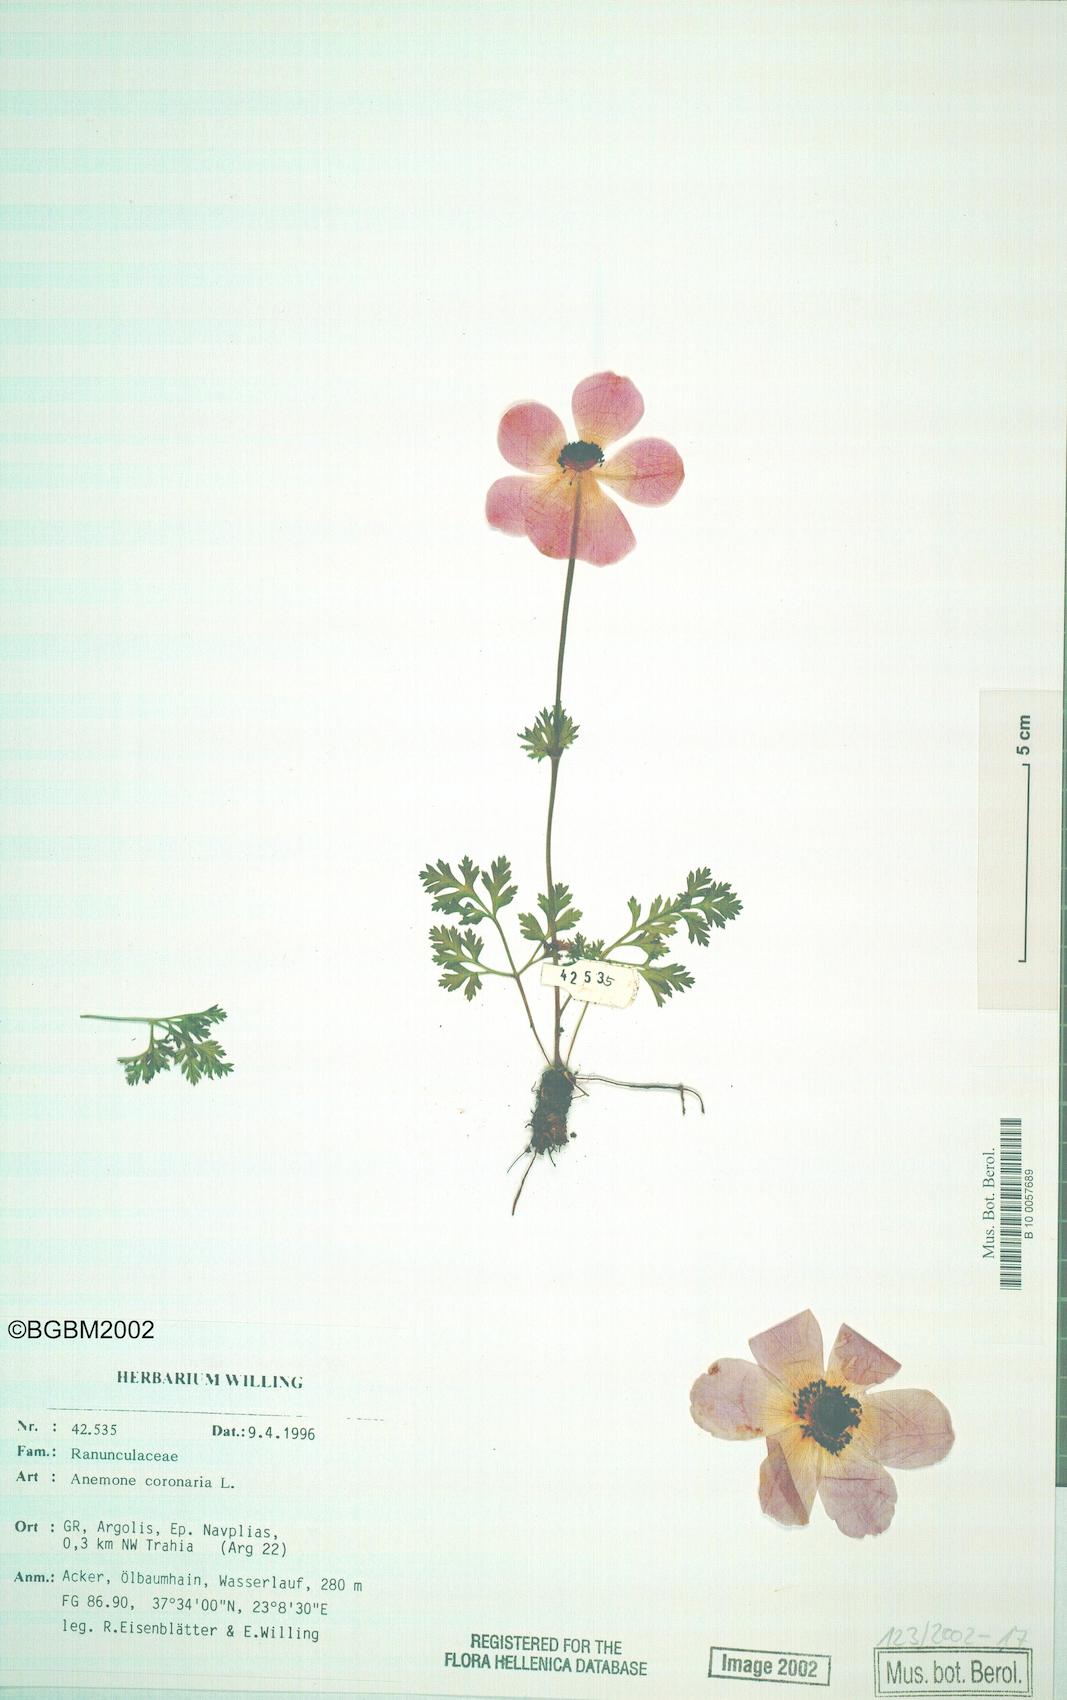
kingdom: Plantae
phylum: Tracheophyta
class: Magnoliopsida
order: Ranunculales
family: Ranunculaceae
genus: Anemone
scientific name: Anemone coronaria
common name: Poppy anemone
